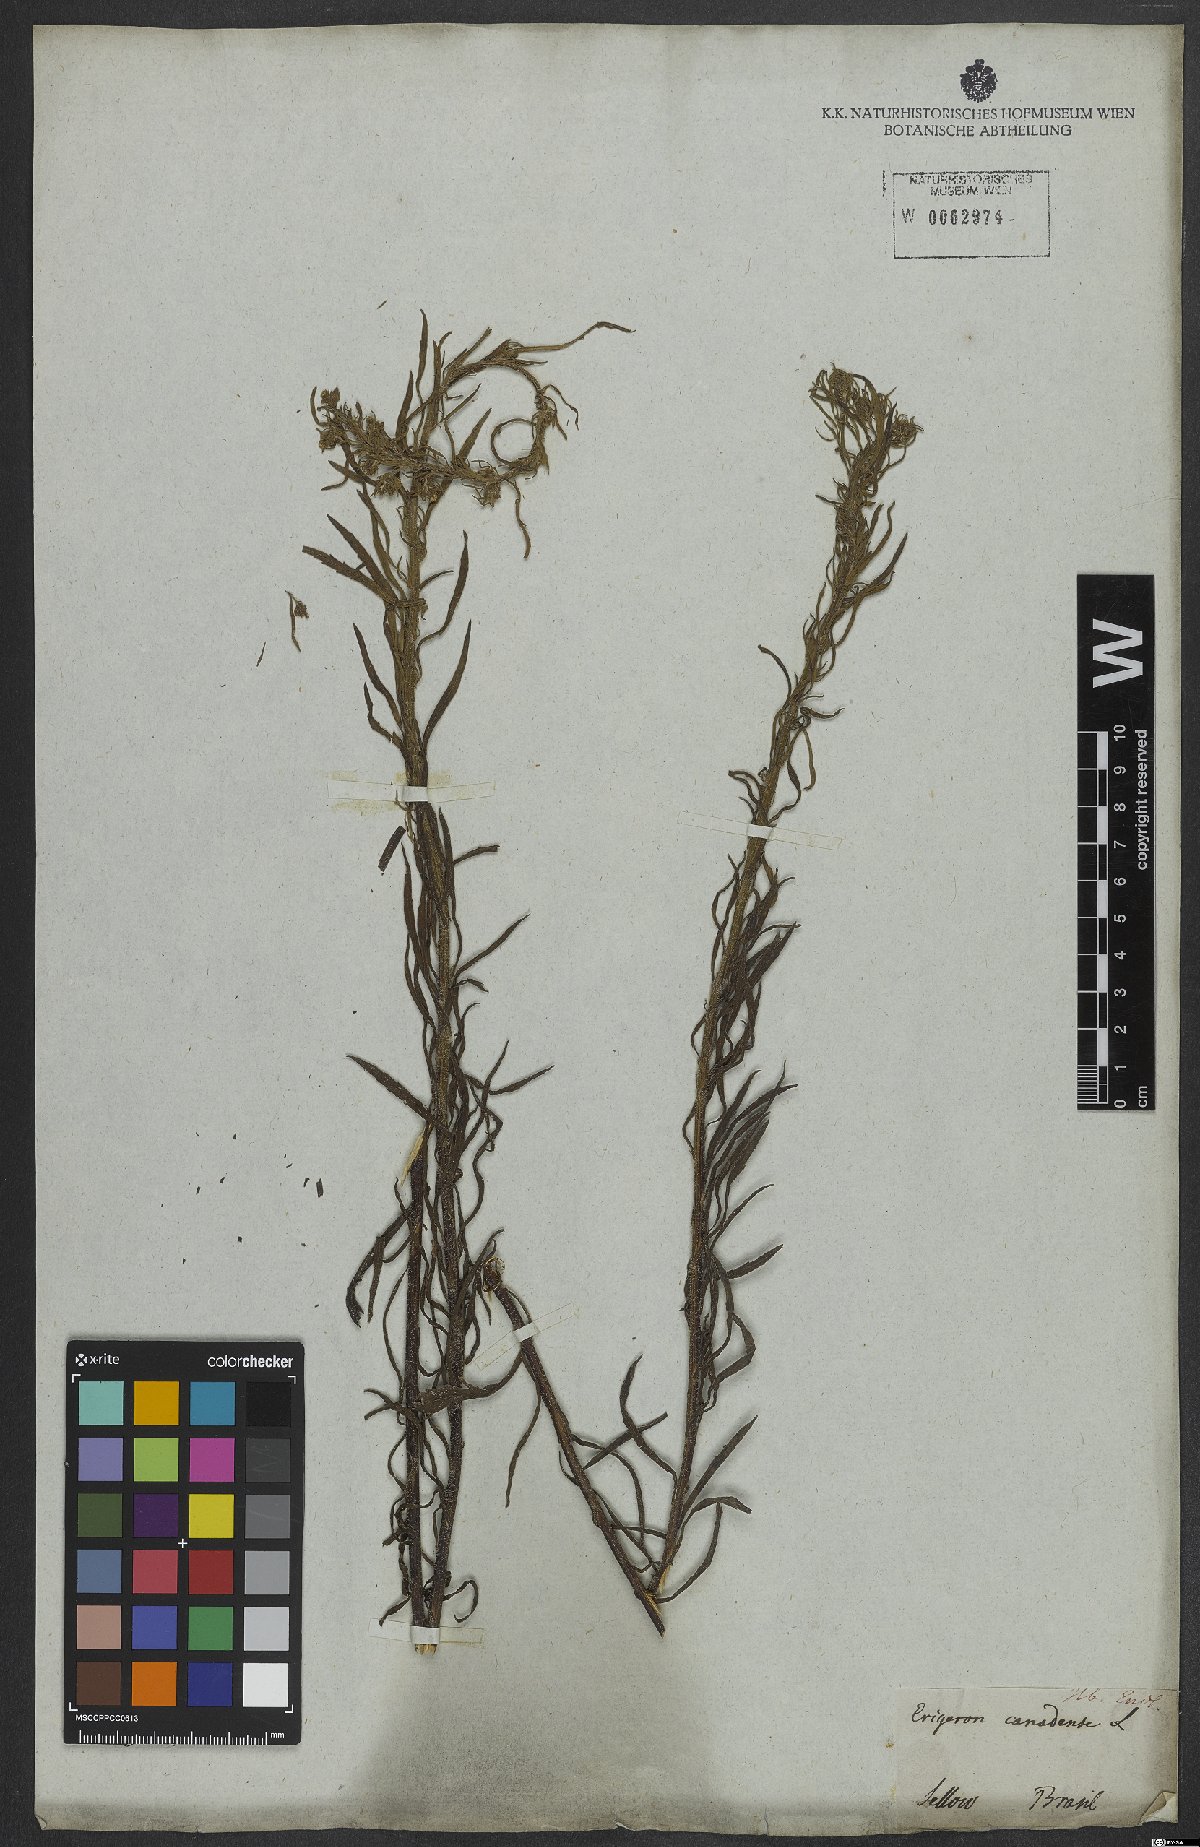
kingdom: Plantae
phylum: Tracheophyta
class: Magnoliopsida
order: Asterales
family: Asteraceae
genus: Erigeron
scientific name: Erigeron canadensis
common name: Canadian fleabane
